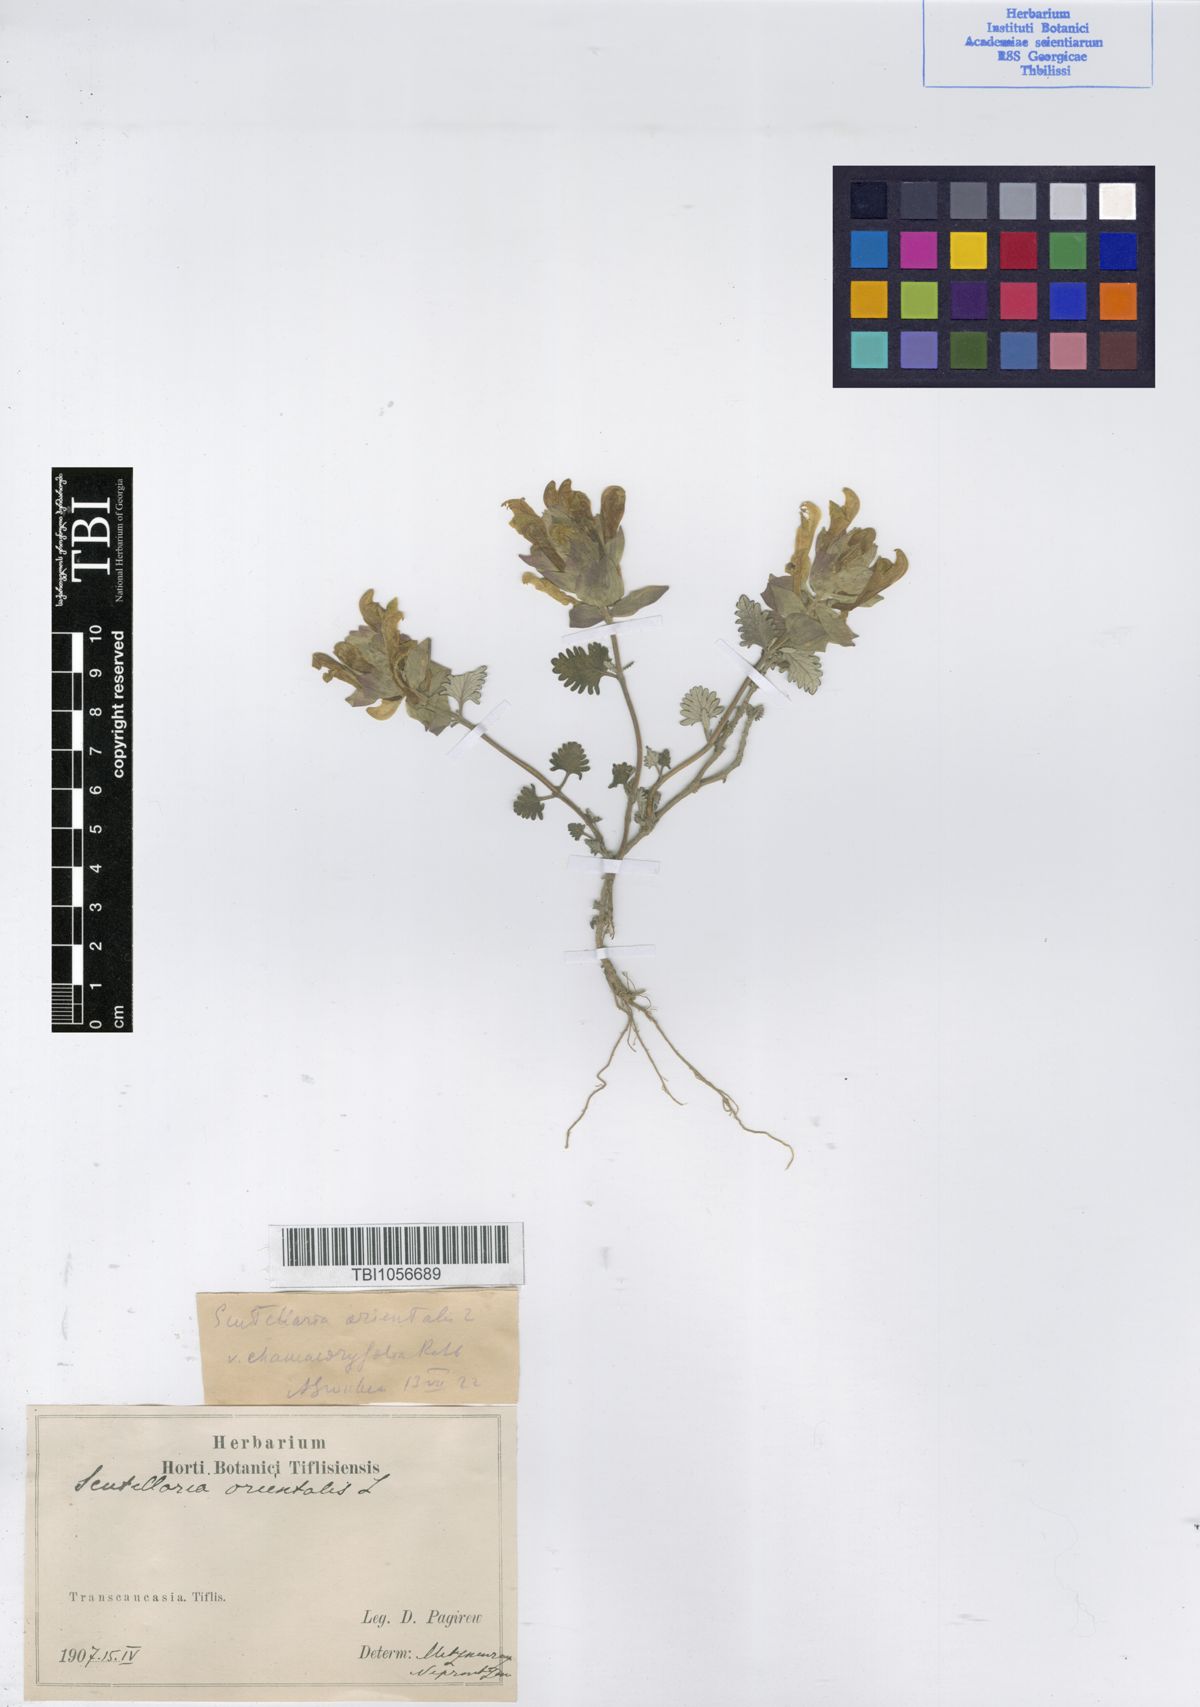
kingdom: Plantae
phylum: Tracheophyta
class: Magnoliopsida
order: Lamiales
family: Lamiaceae
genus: Scutellaria
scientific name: Scutellaria orientalis
